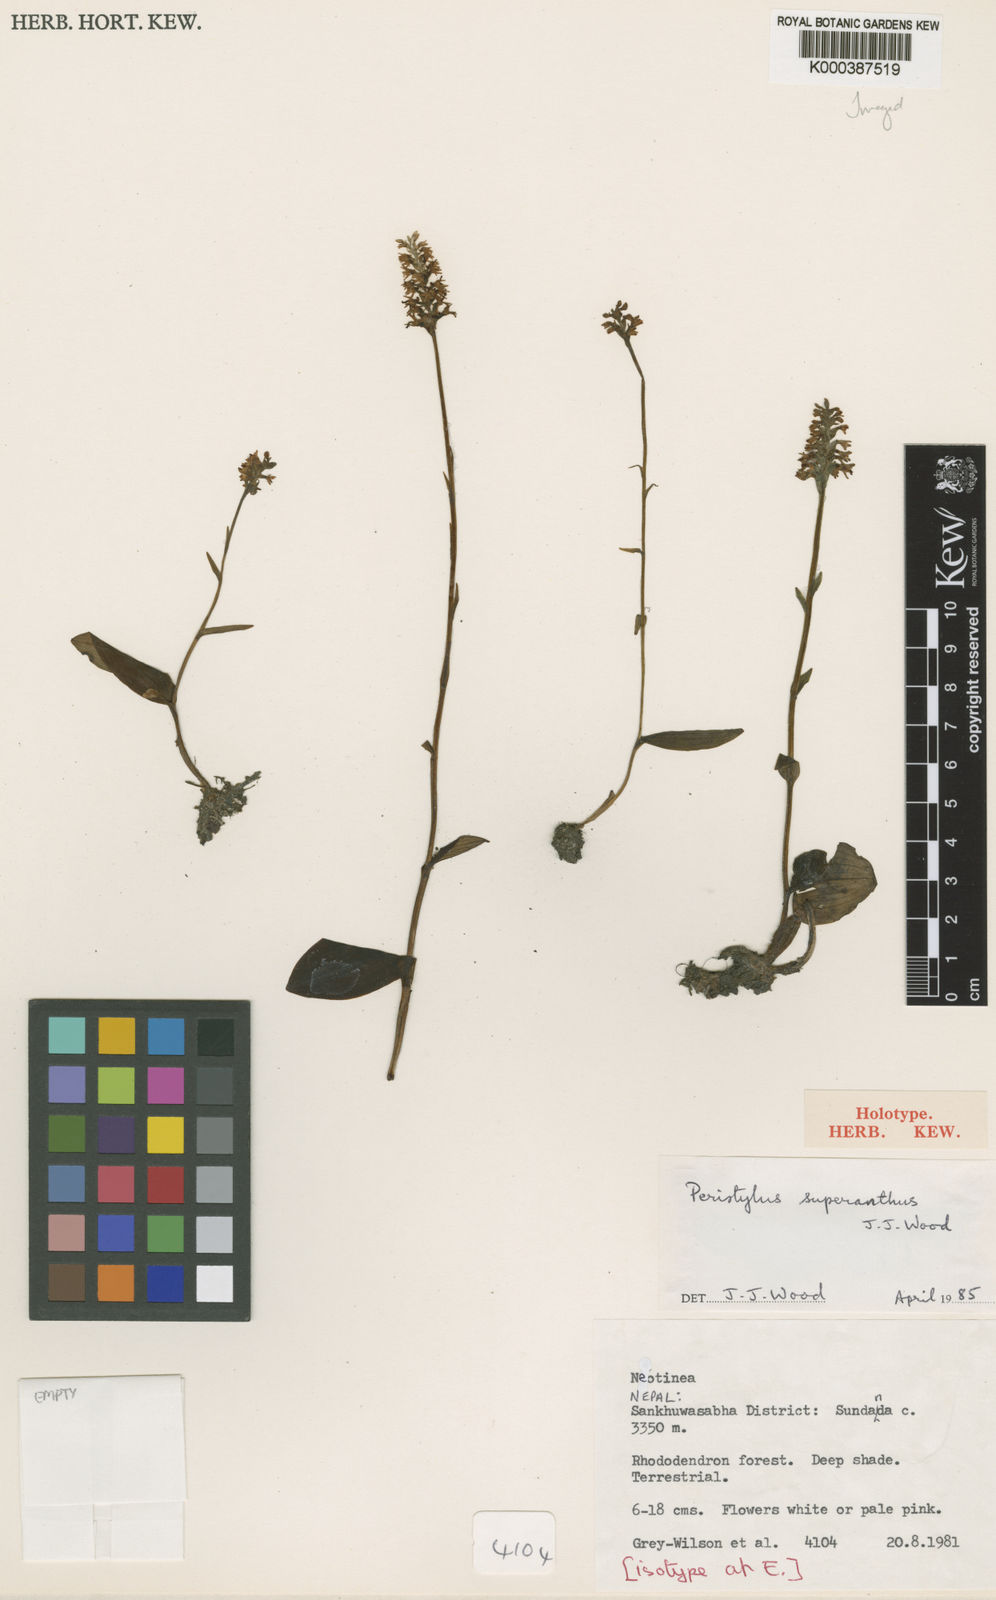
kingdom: Plantae
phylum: Tracheophyta
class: Liliopsida
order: Asparagales
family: Orchidaceae
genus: Platanthera
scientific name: Platanthera superantha
